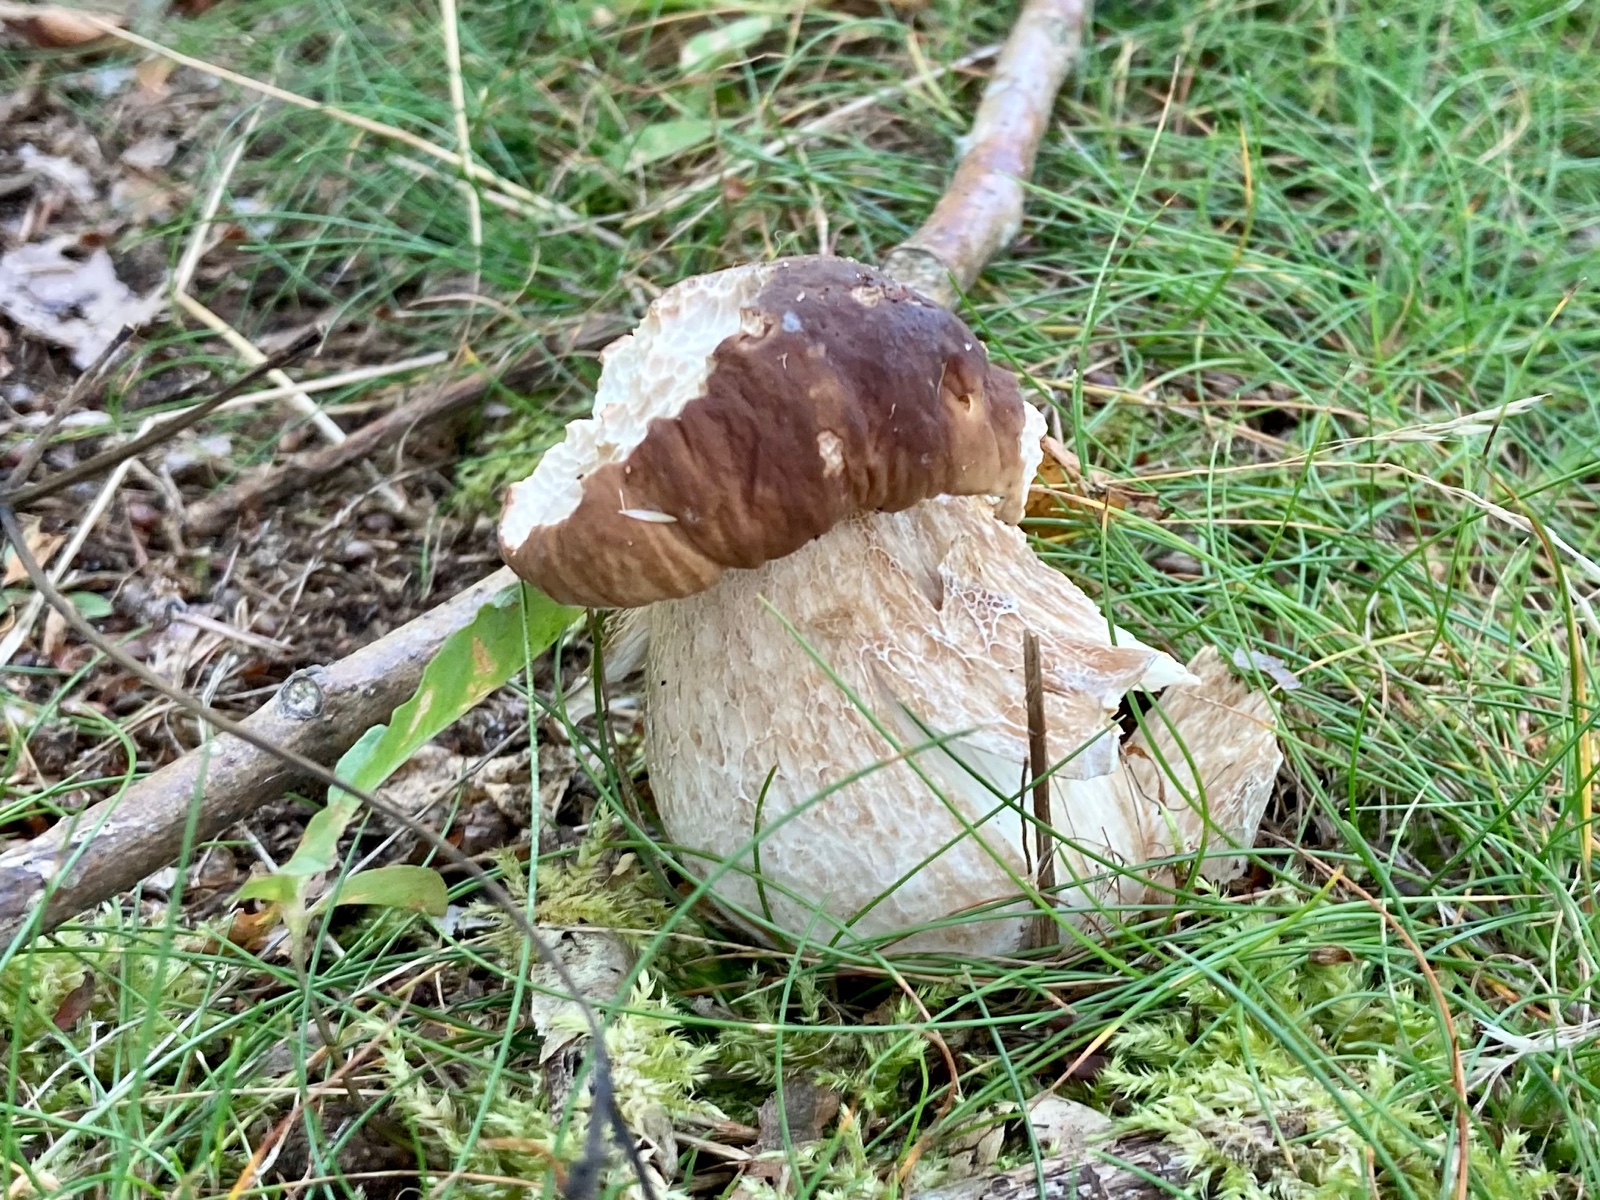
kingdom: Fungi
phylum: Basidiomycota
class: Agaricomycetes
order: Boletales
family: Boletaceae
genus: Boletus
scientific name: Boletus edulis
